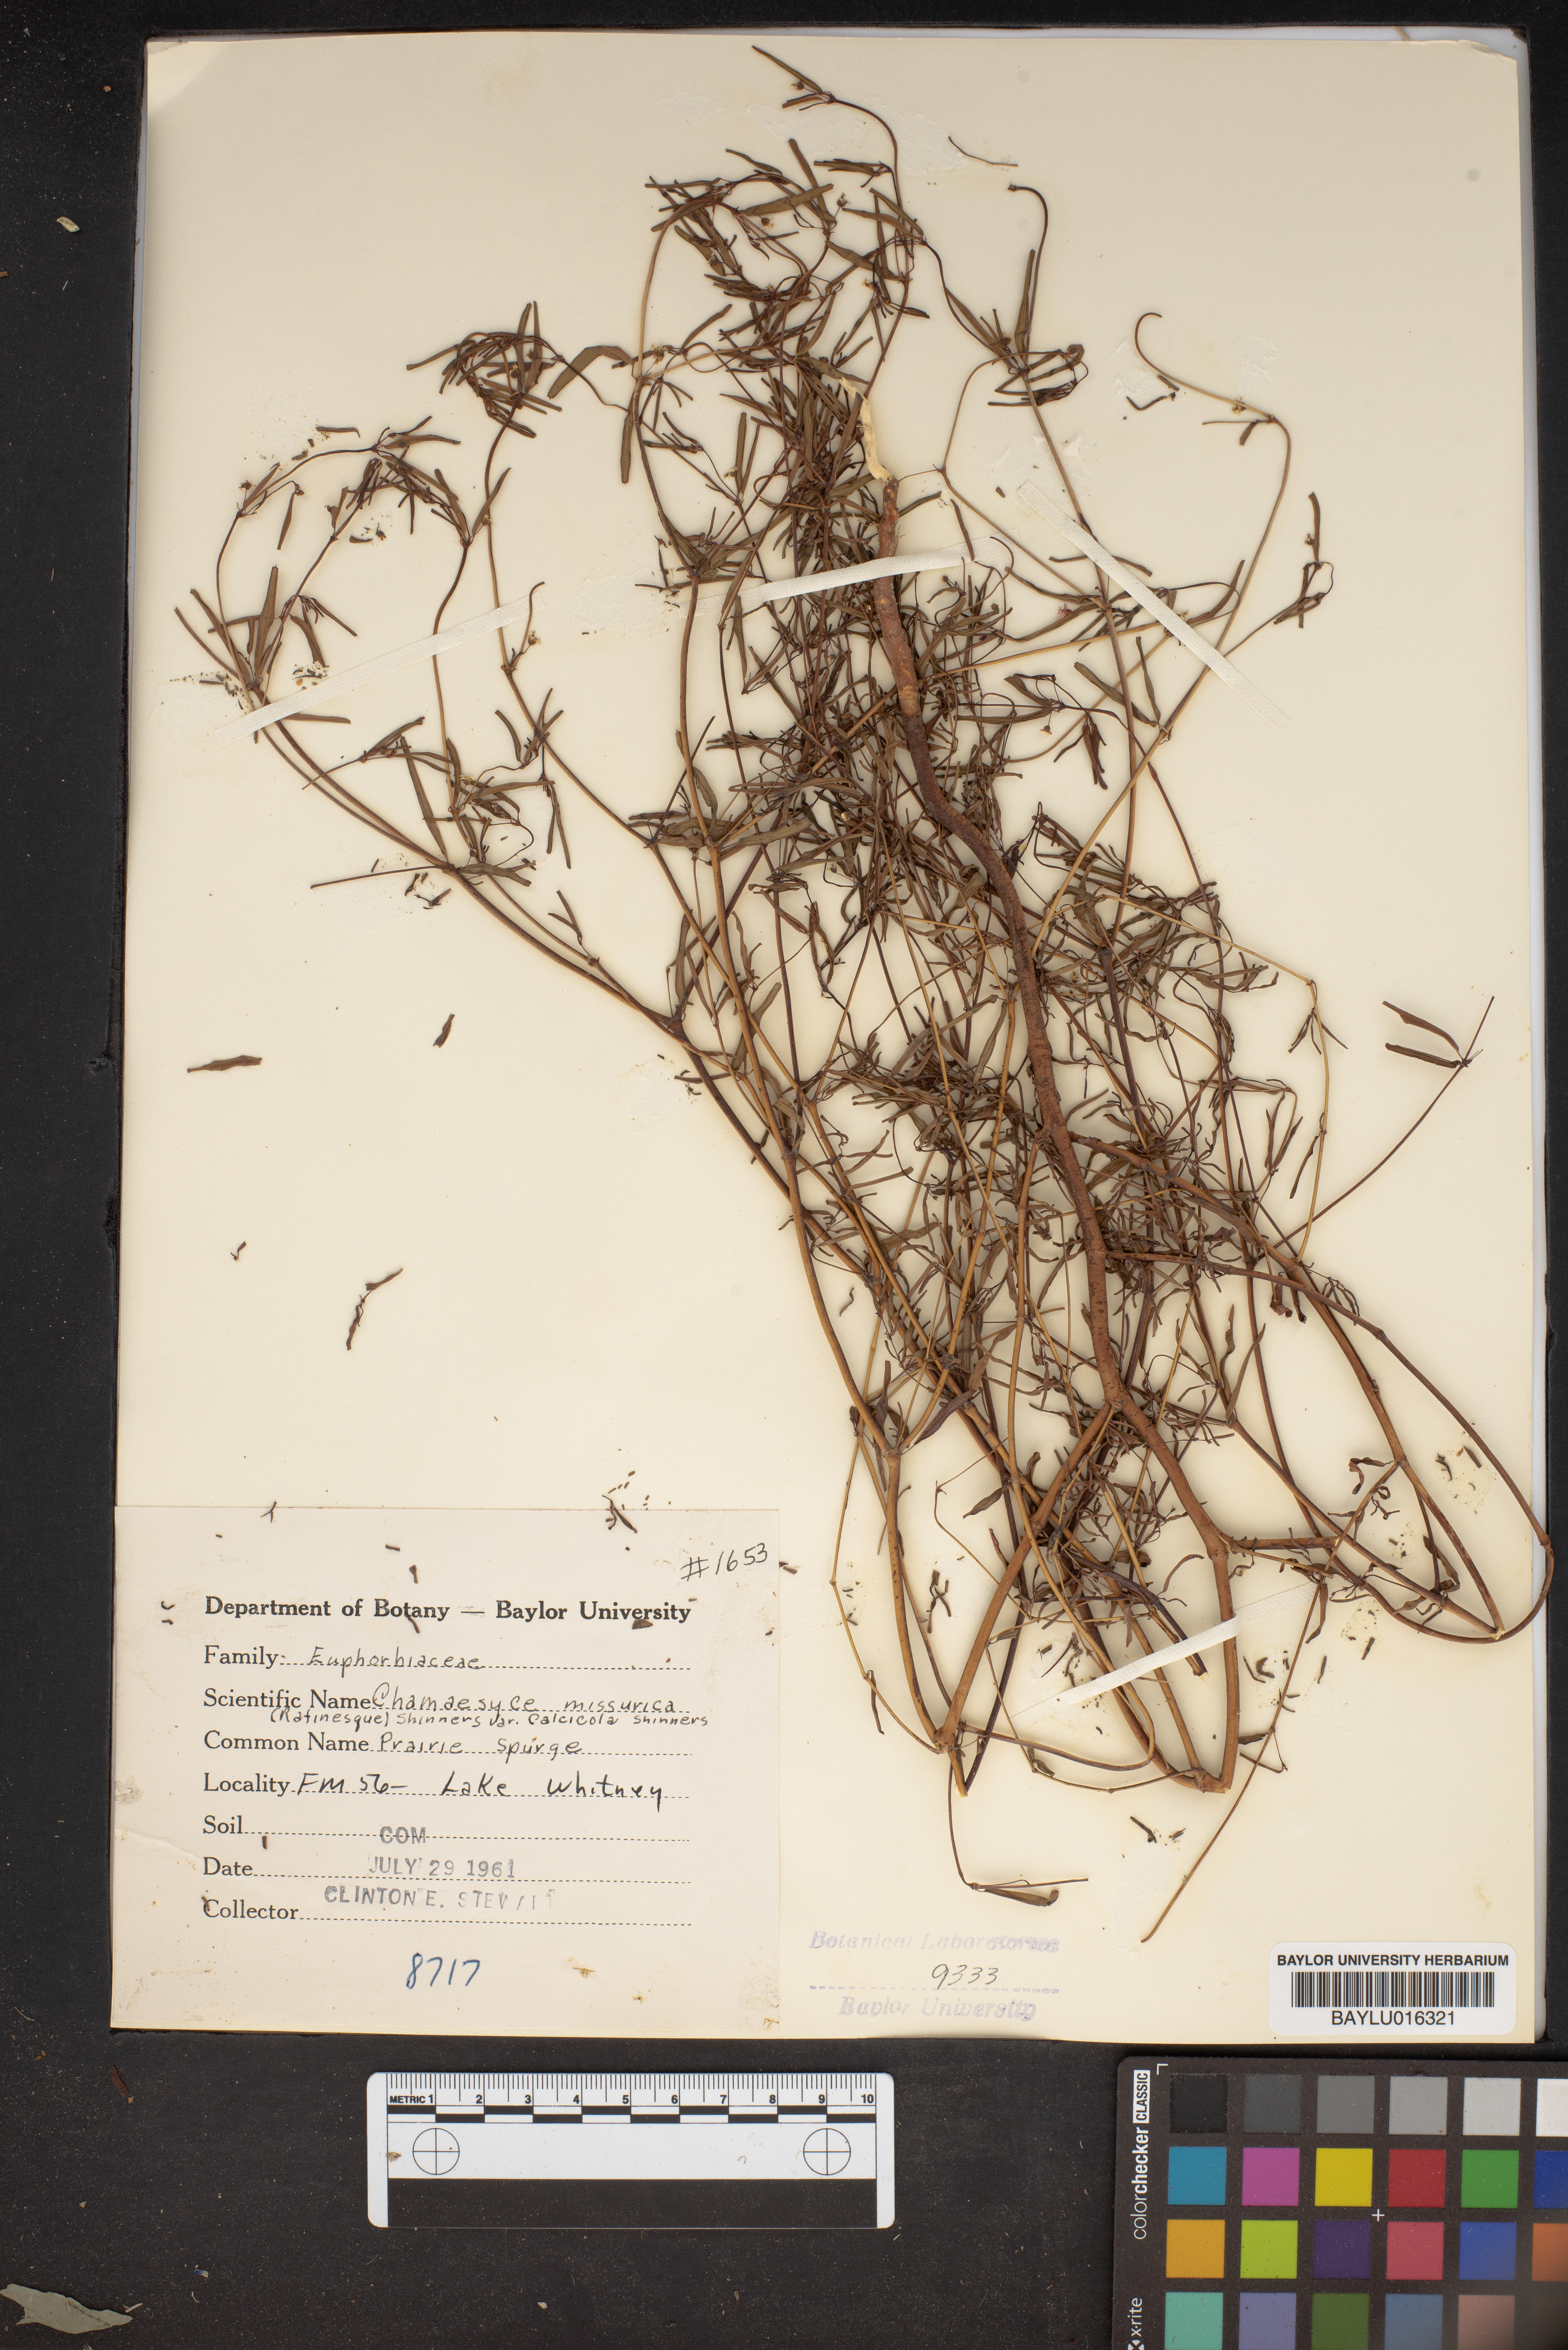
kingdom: Plantae
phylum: Tracheophyta
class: Magnoliopsida
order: Malpighiales
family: Euphorbiaceae
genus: Euphorbia
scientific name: Euphorbia missurica
